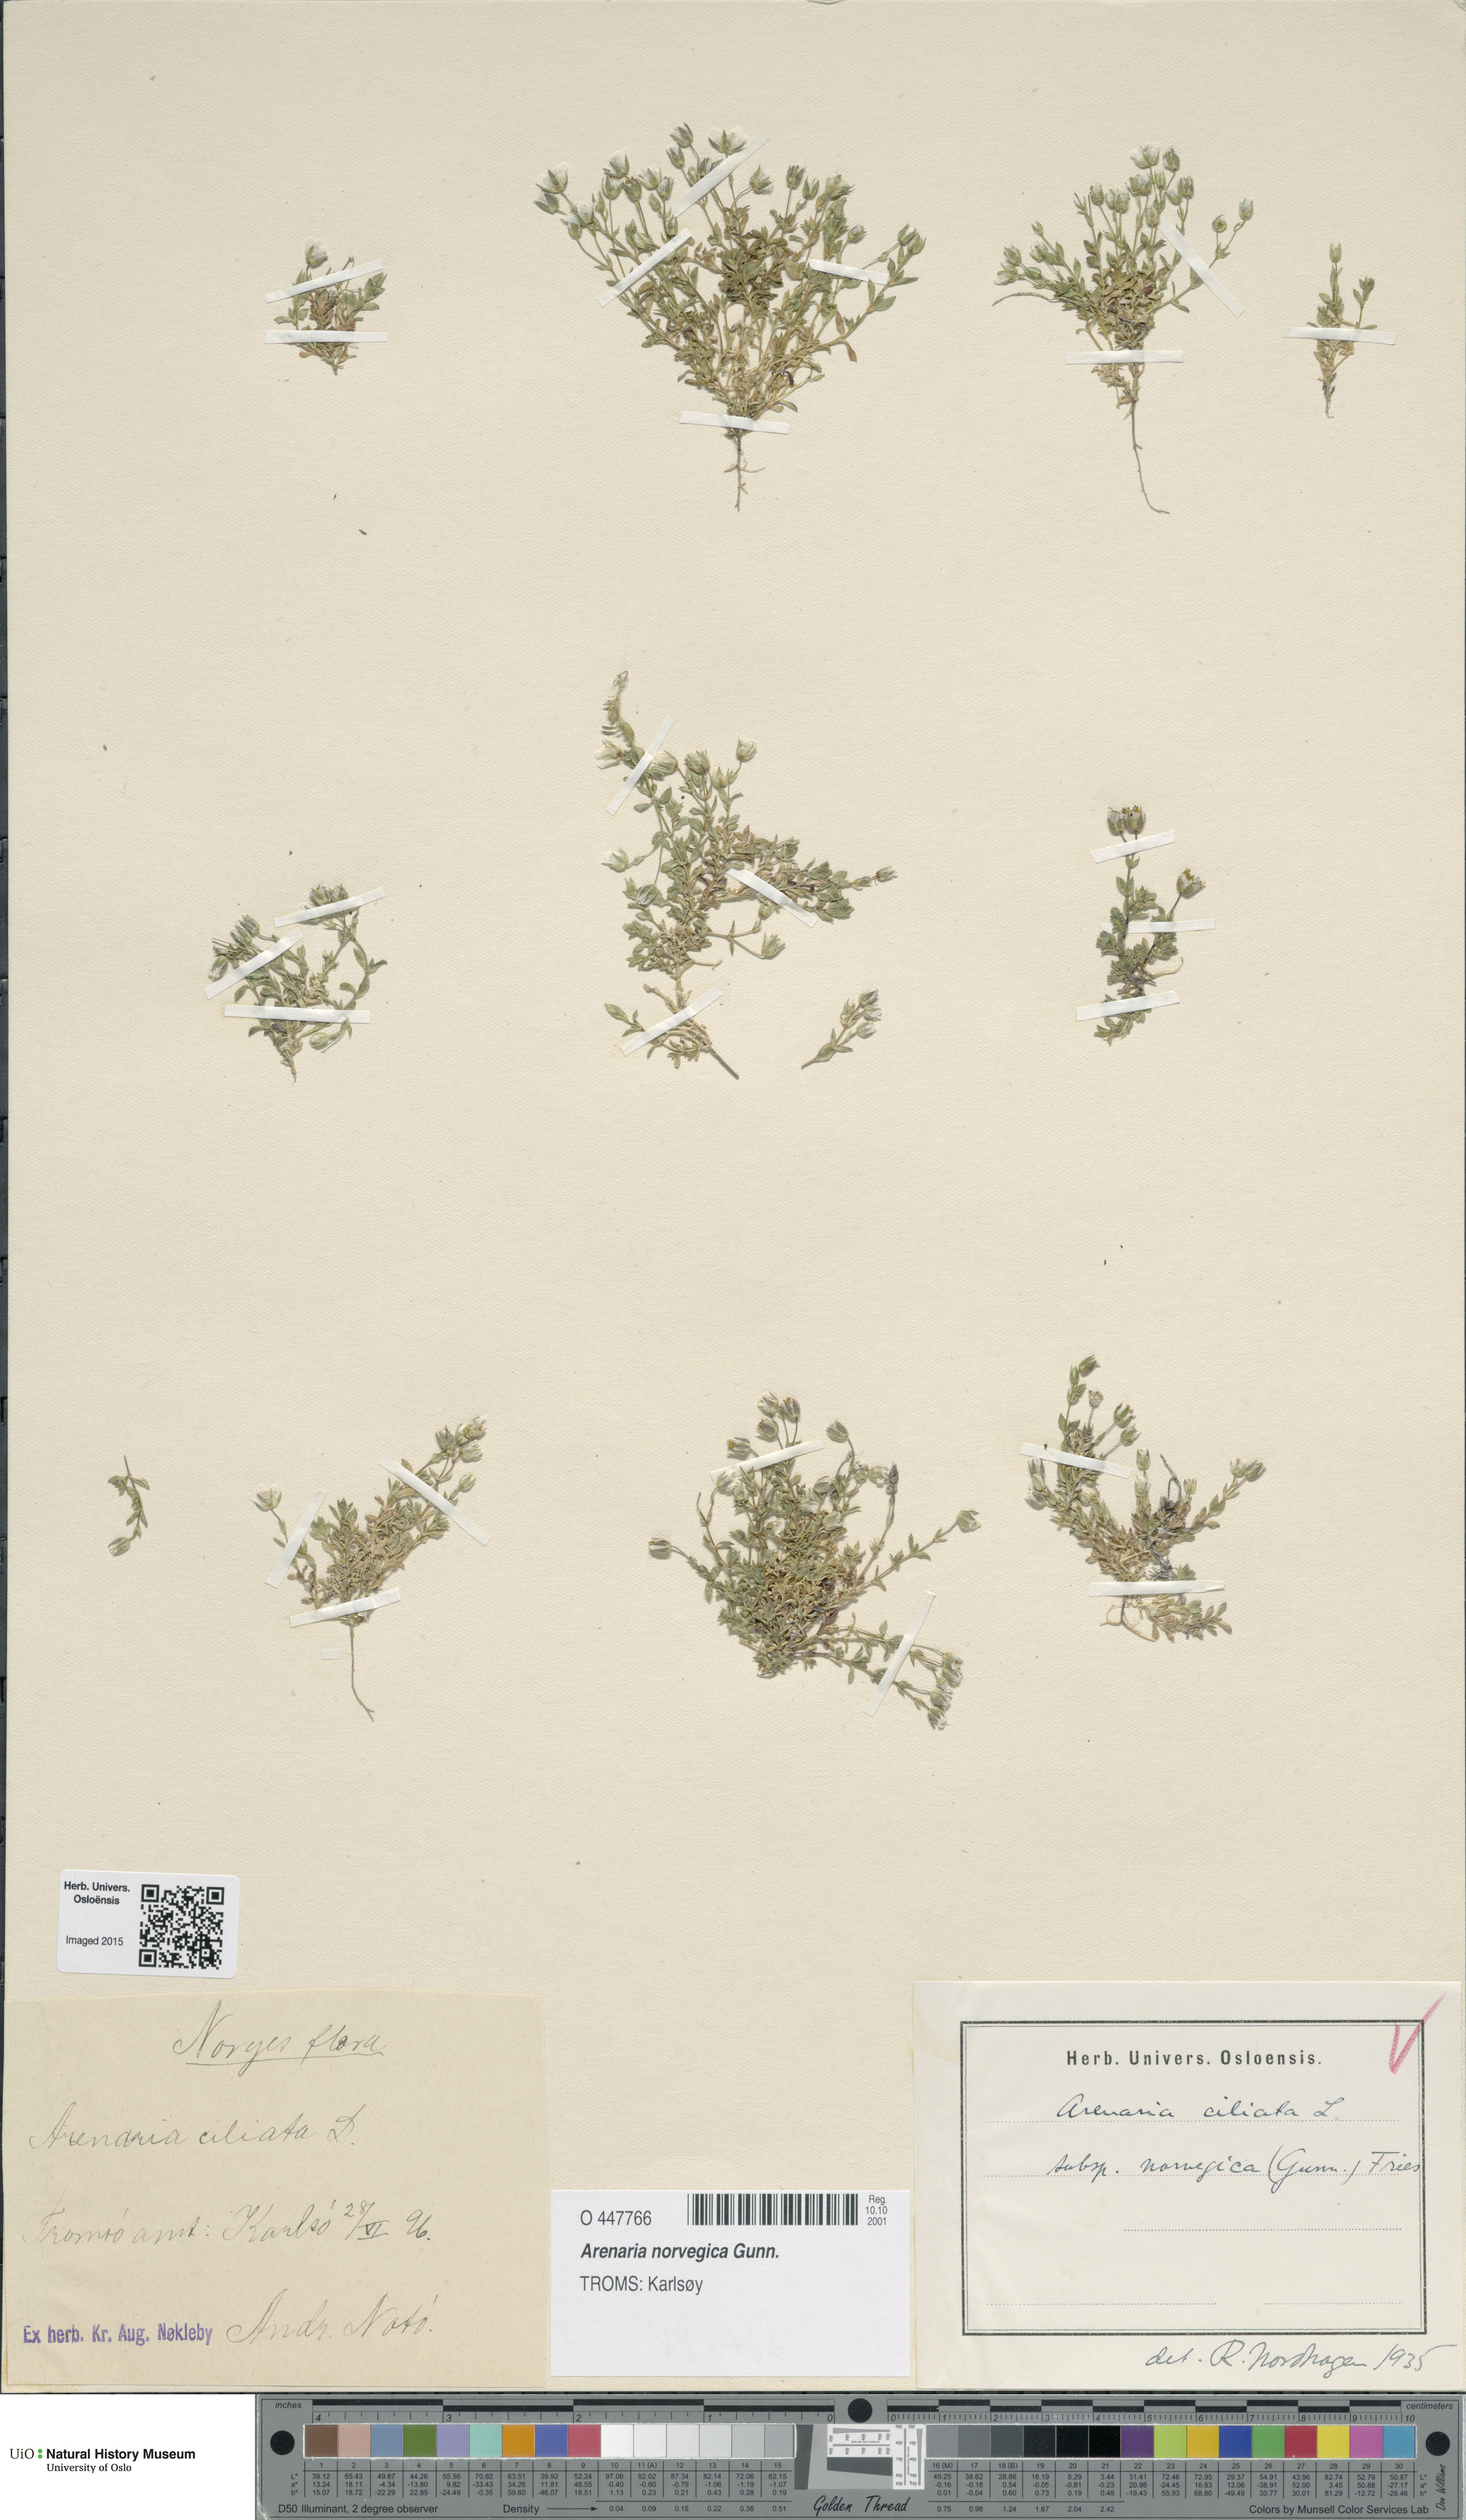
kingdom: Plantae
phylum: Tracheophyta
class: Magnoliopsida
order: Caryophyllales
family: Caryophyllaceae
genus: Arenaria
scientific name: Arenaria norvegica
